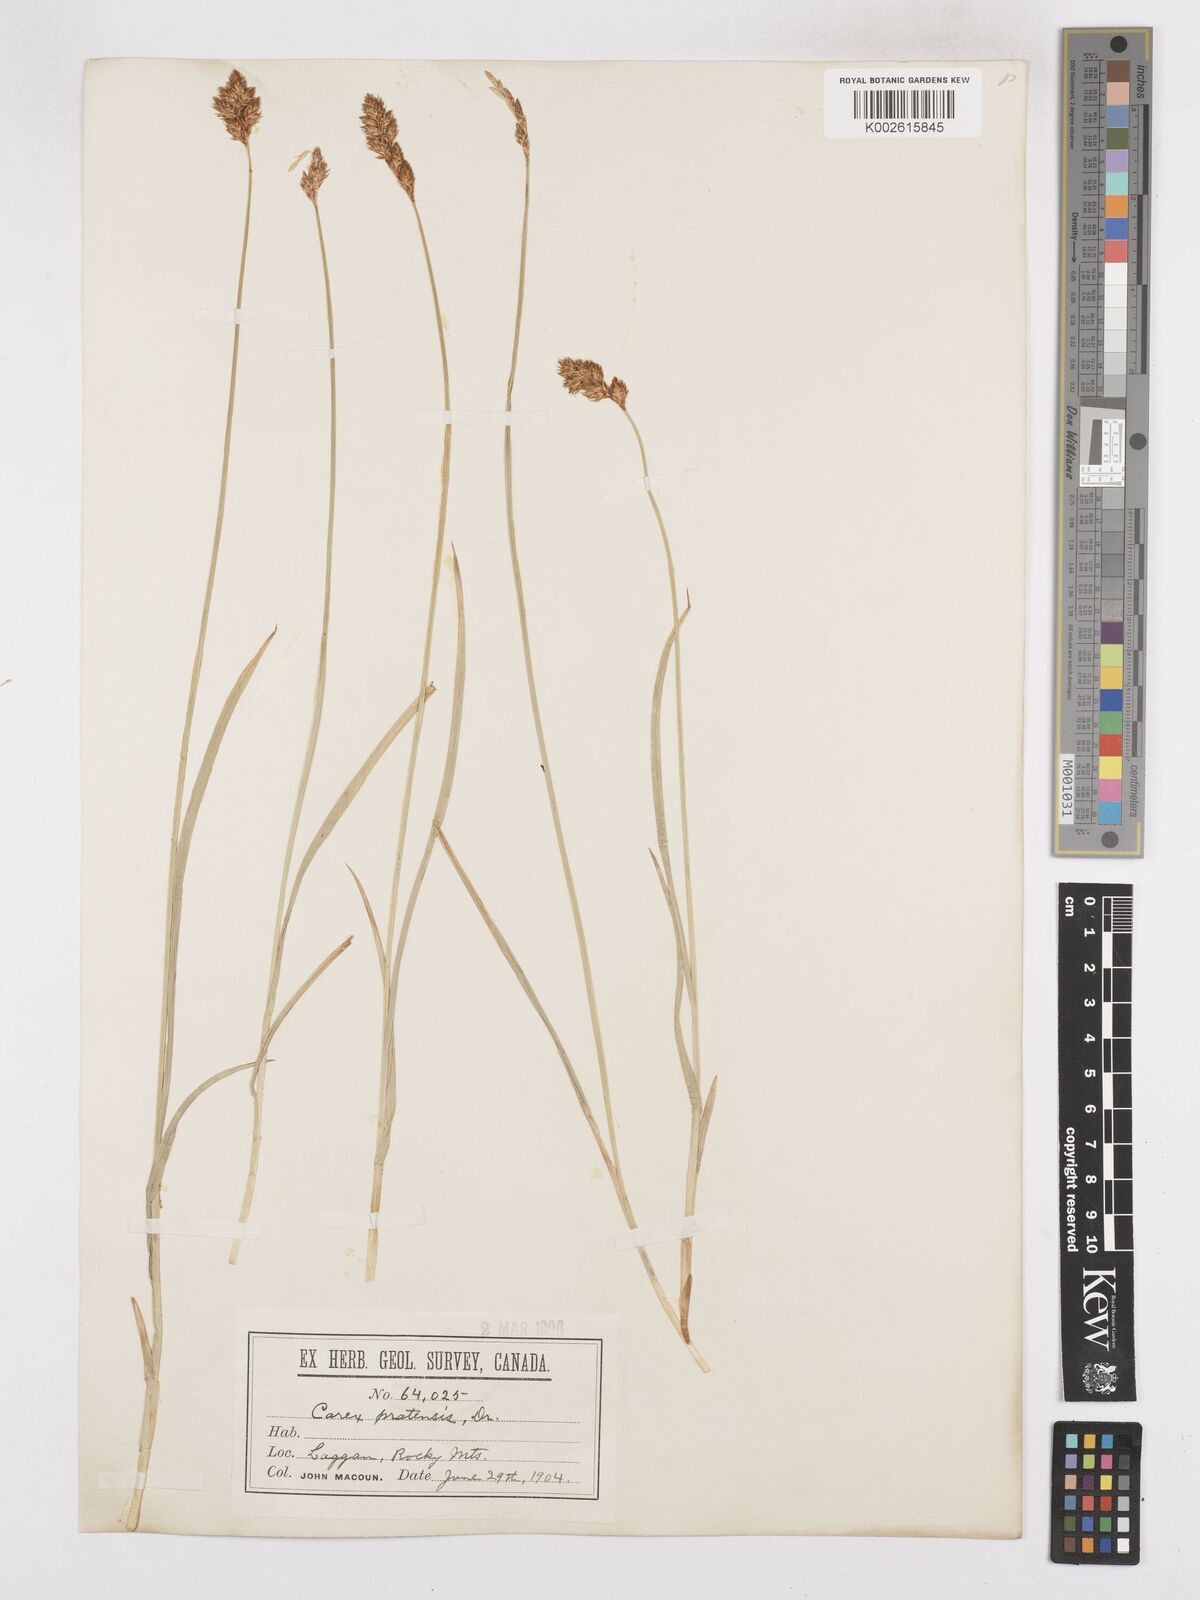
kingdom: Plantae
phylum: Tracheophyta
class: Liliopsida
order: Poales
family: Cyperaceae
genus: Carex
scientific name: Carex specifica
